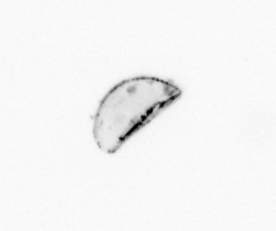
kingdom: Chromista
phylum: Ochrophyta
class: Bacillariophyceae
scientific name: Bacillariophyceae
